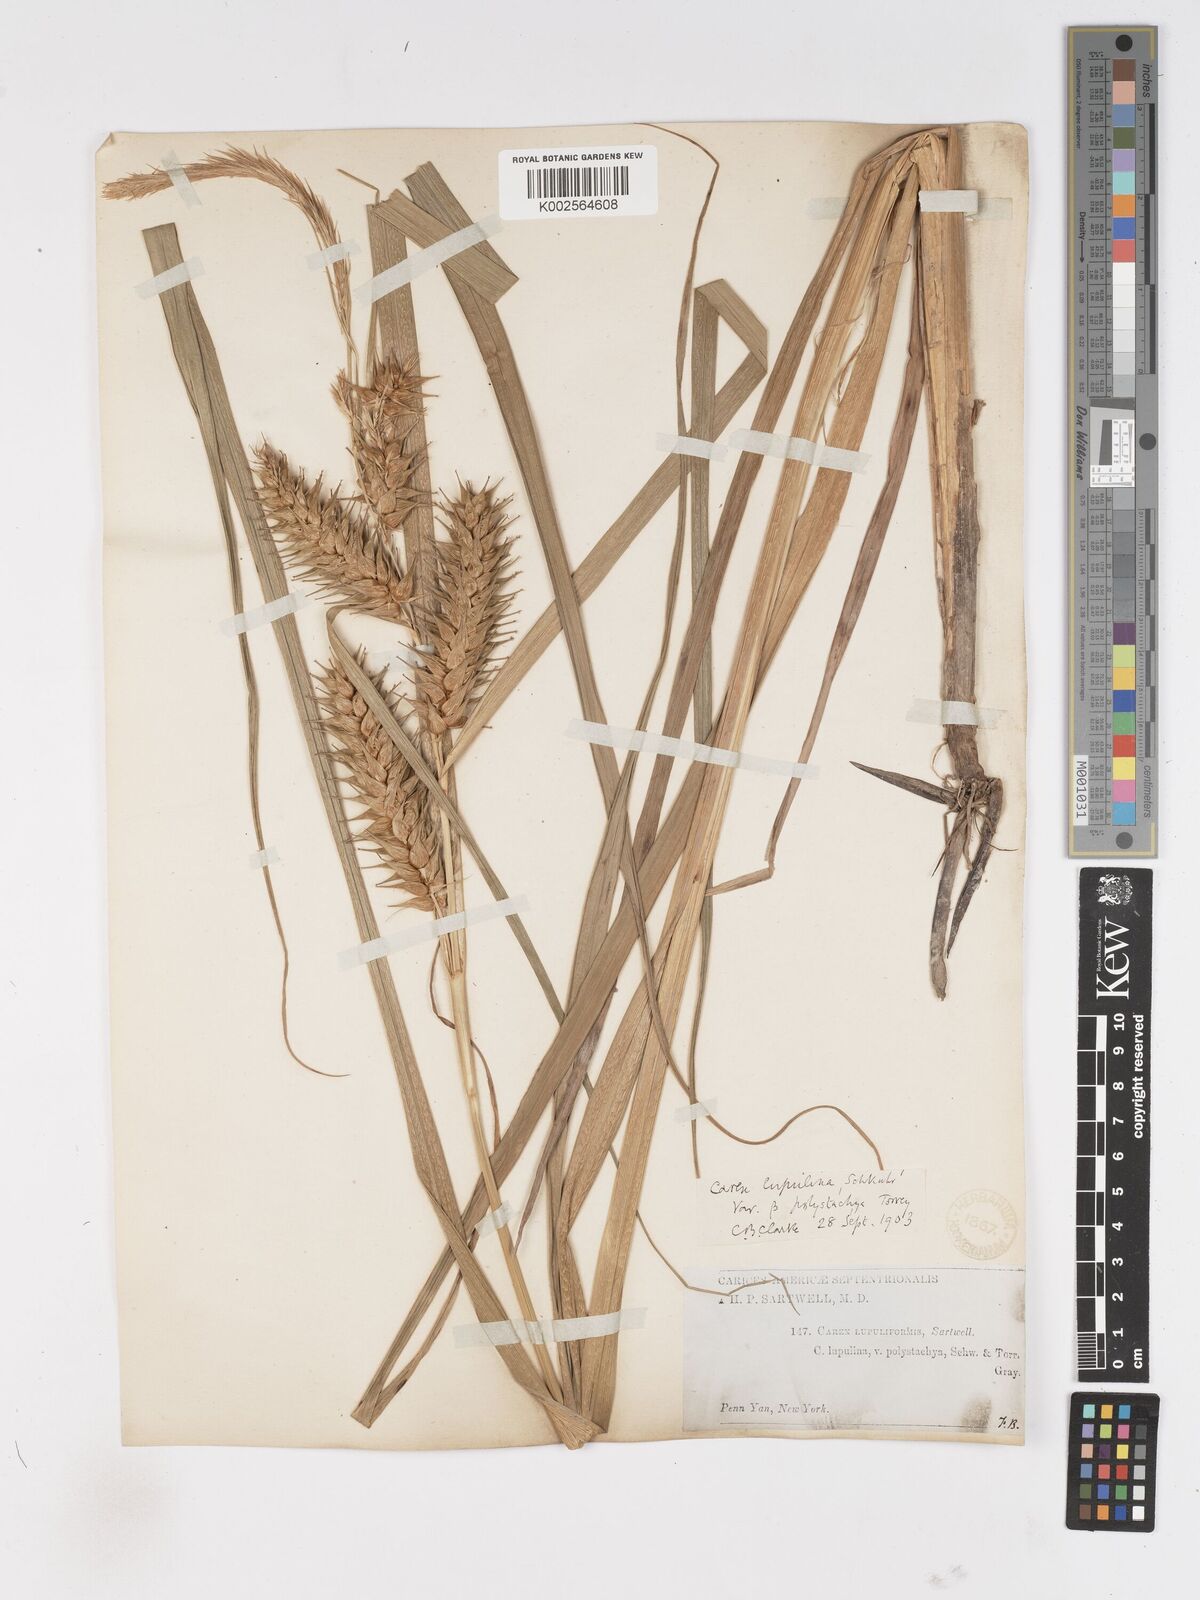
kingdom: Plantae
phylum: Tracheophyta
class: Liliopsida
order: Poales
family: Cyperaceae
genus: Carex
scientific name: Carex lupuliformis
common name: False hop sedge
